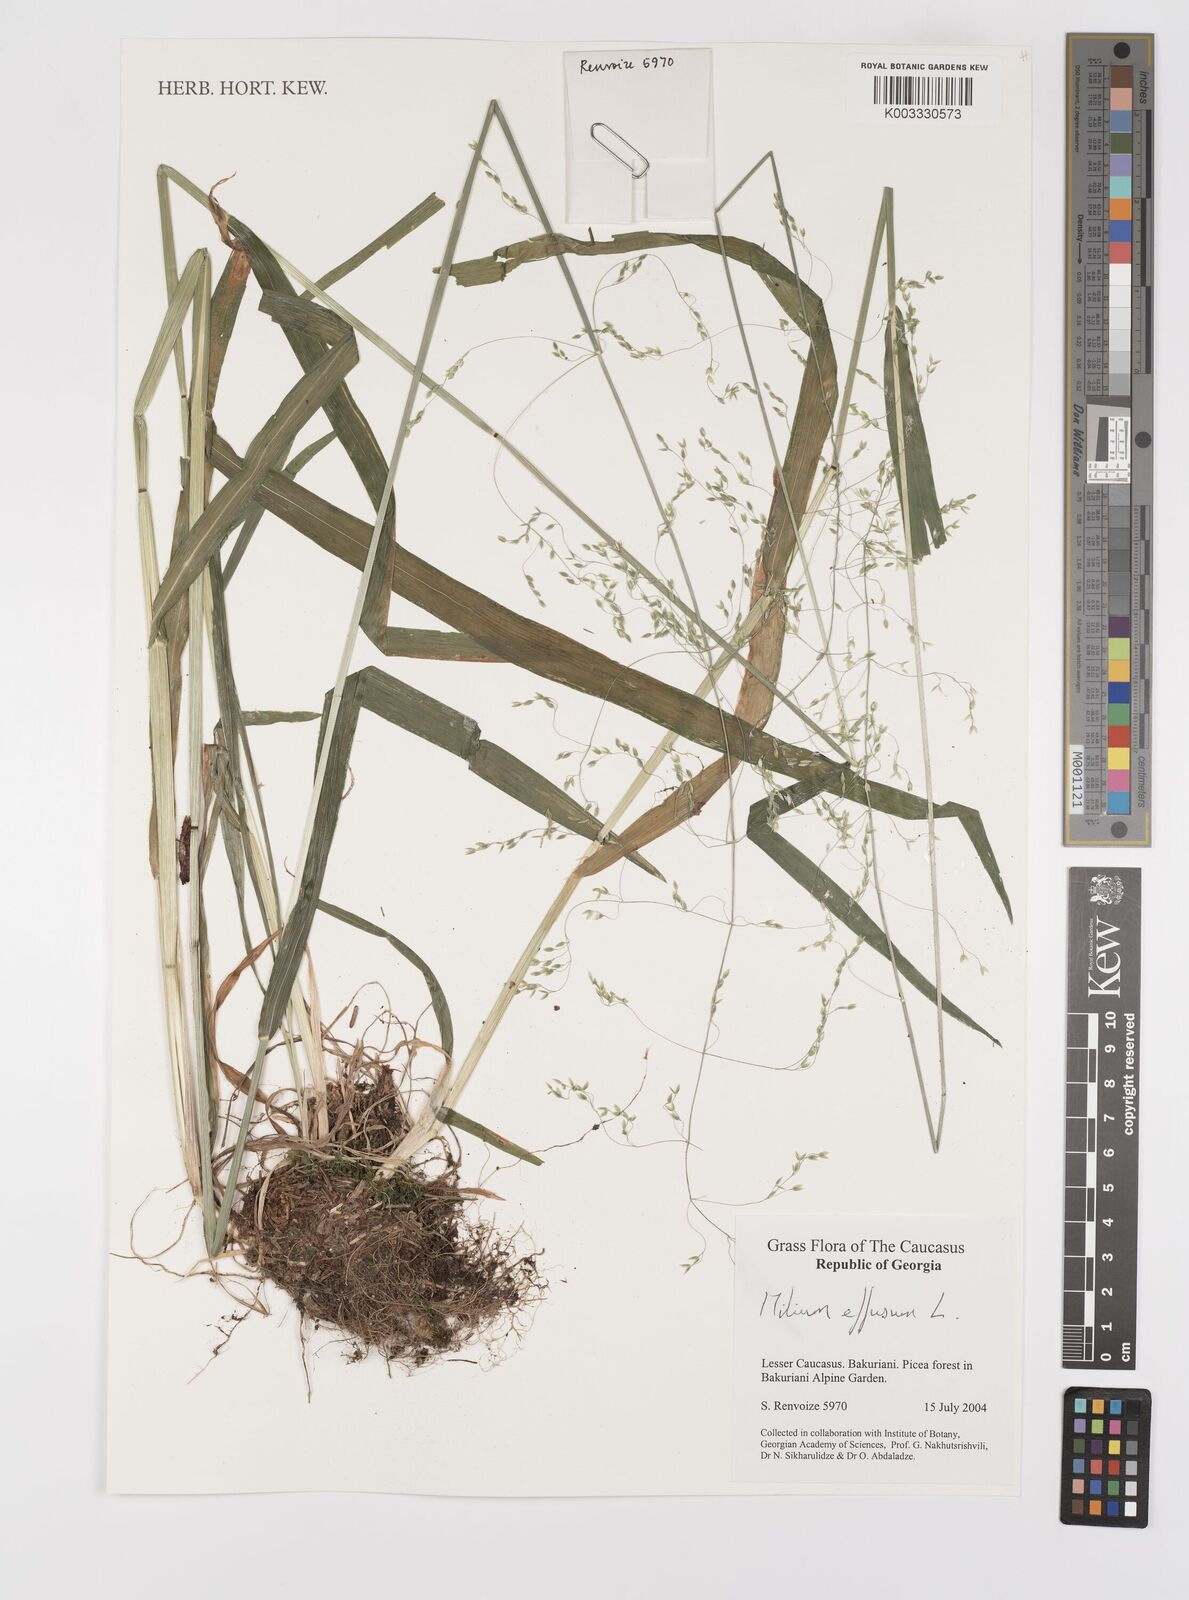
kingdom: Plantae
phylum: Tracheophyta
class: Liliopsida
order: Poales
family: Poaceae
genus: Milium
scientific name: Milium effusum
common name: Wood millet
